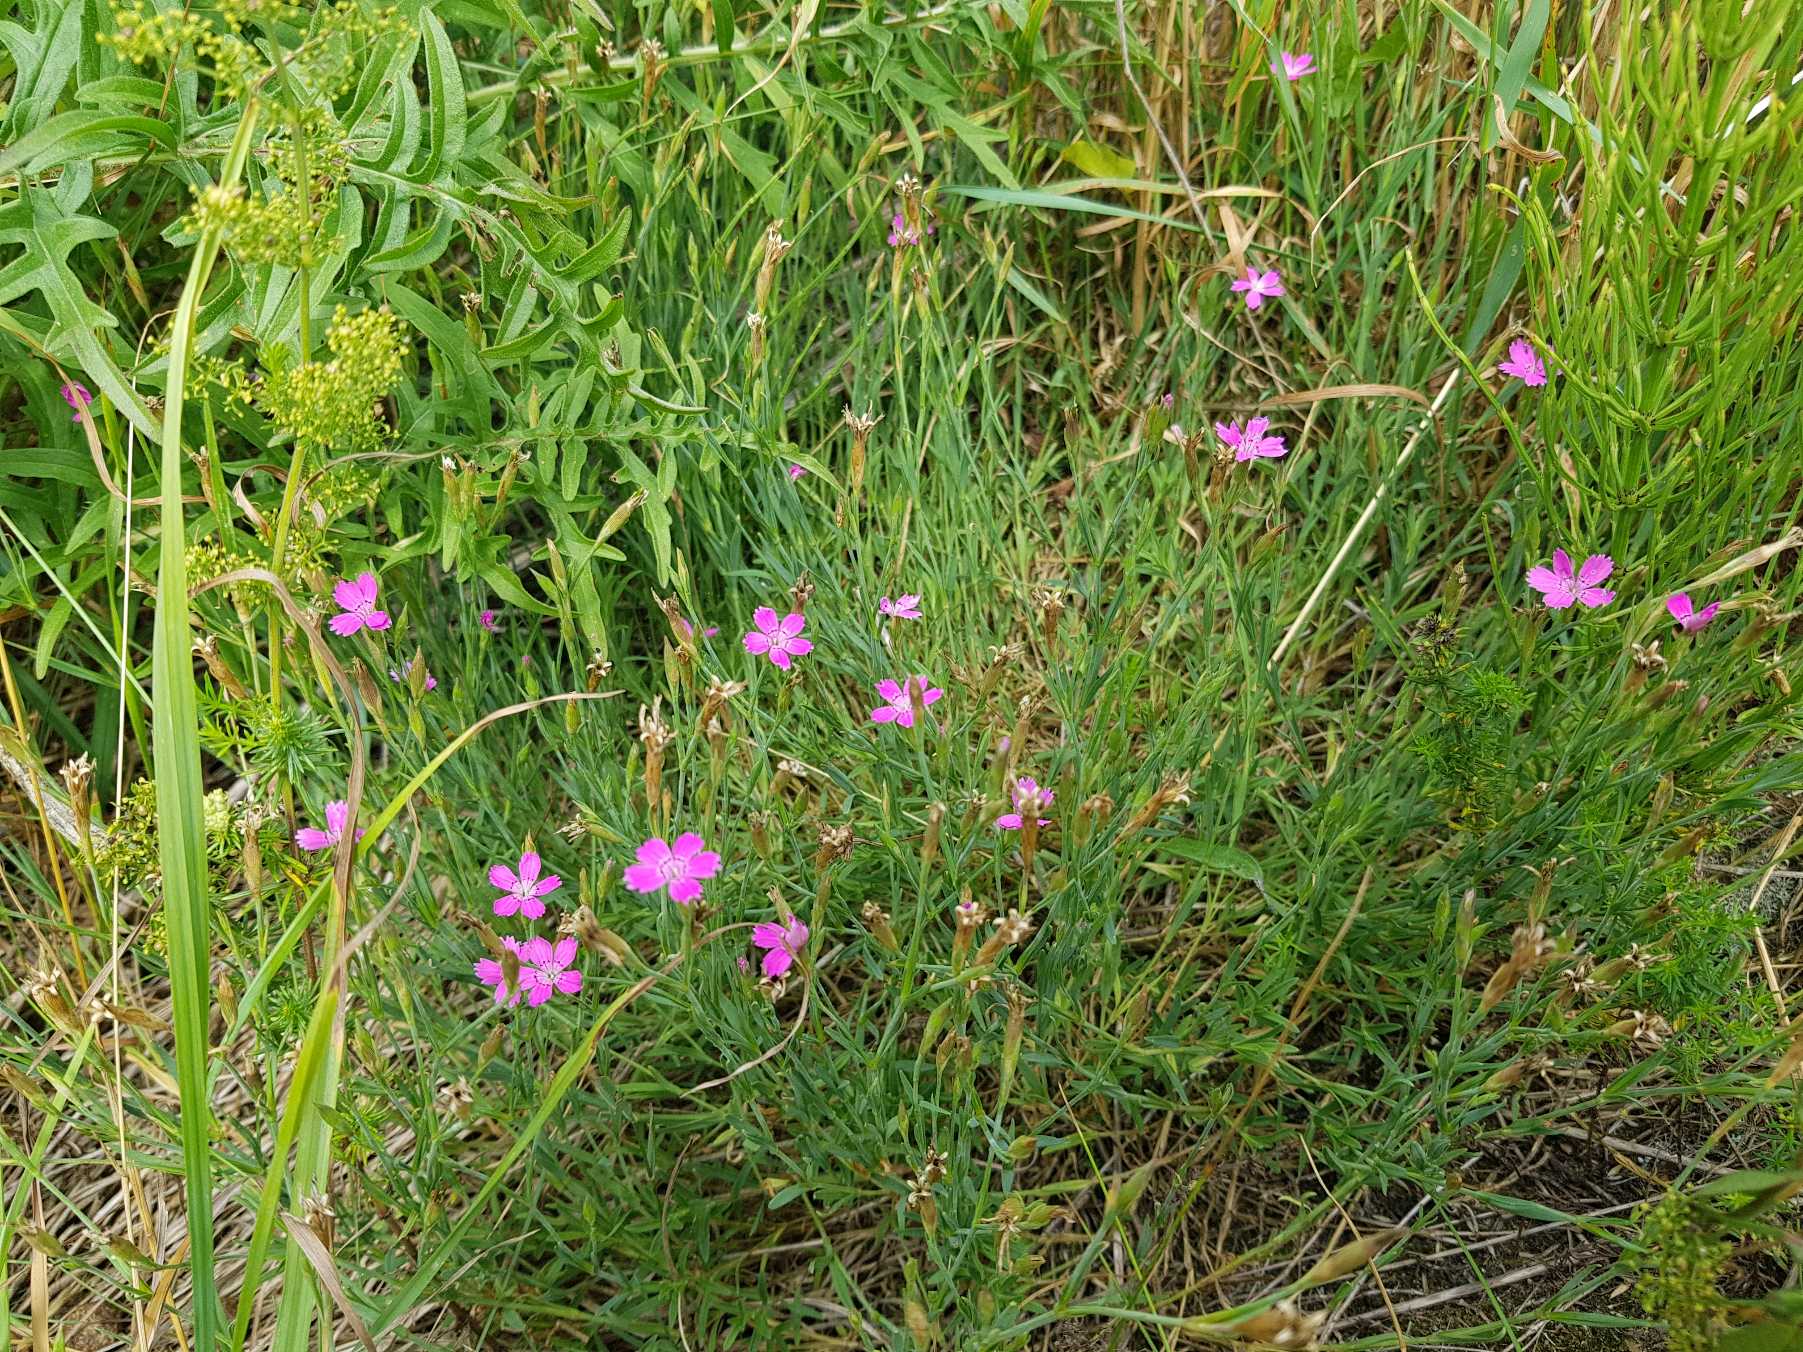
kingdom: Plantae
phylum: Tracheophyta
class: Magnoliopsida
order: Caryophyllales
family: Caryophyllaceae
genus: Dianthus
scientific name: Dianthus deltoides
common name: Bakke-nellike
